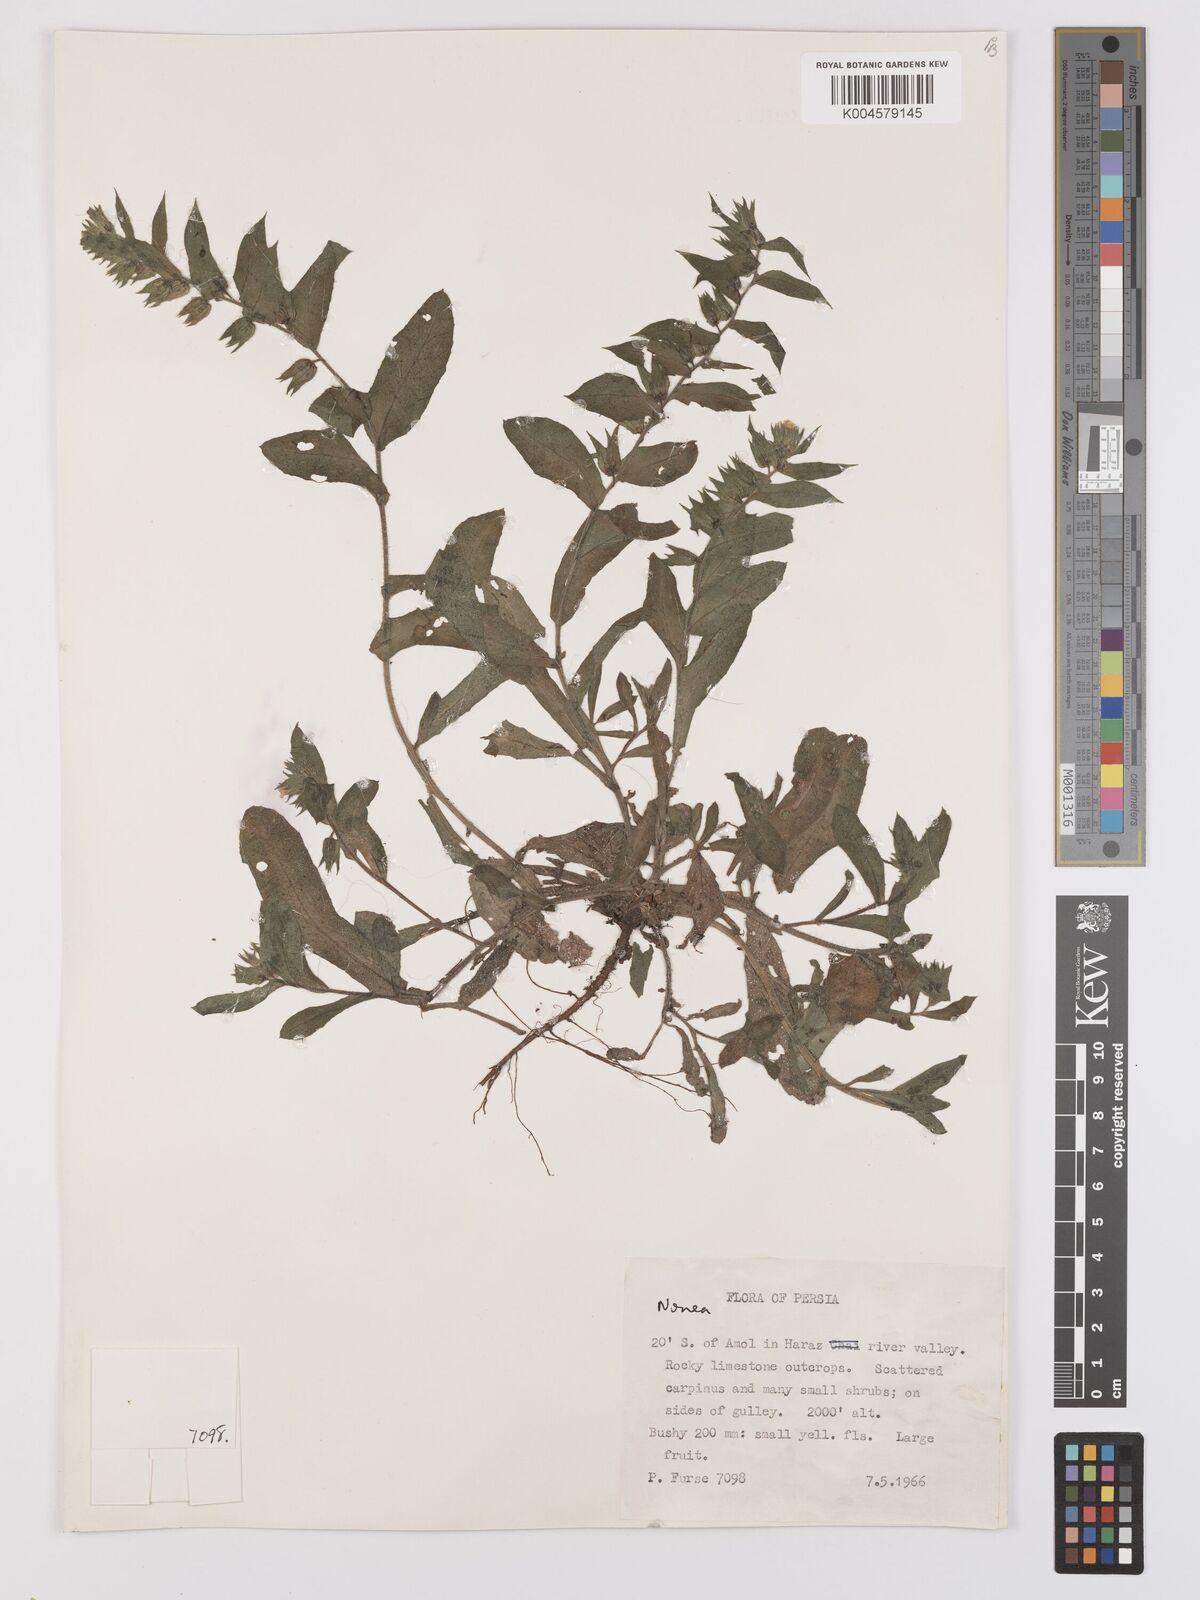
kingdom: Plantae
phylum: Tracheophyta
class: Magnoliopsida
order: Boraginales
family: Boraginaceae
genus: Nonea
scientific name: Nonea
